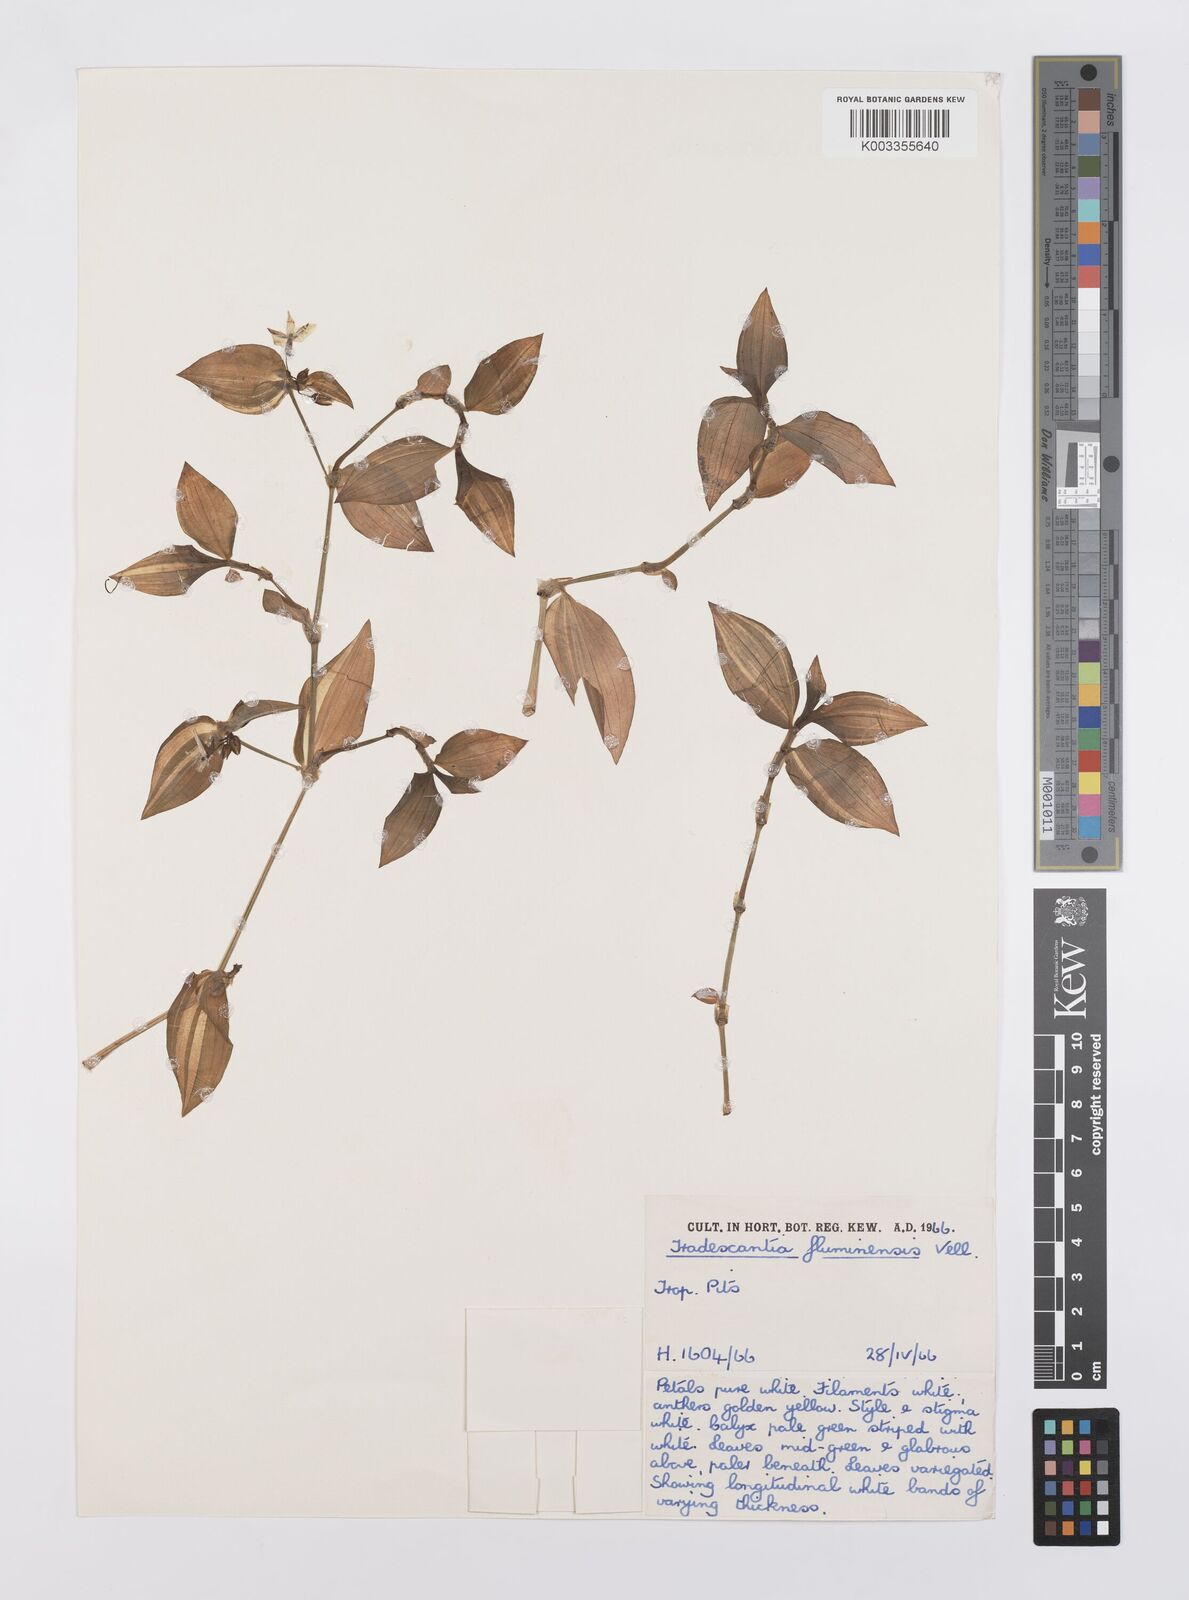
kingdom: Plantae
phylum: Tracheophyta
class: Liliopsida
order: Commelinales
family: Commelinaceae
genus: Tradescantia
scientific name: Tradescantia fluminensis
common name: Wandering-jew
